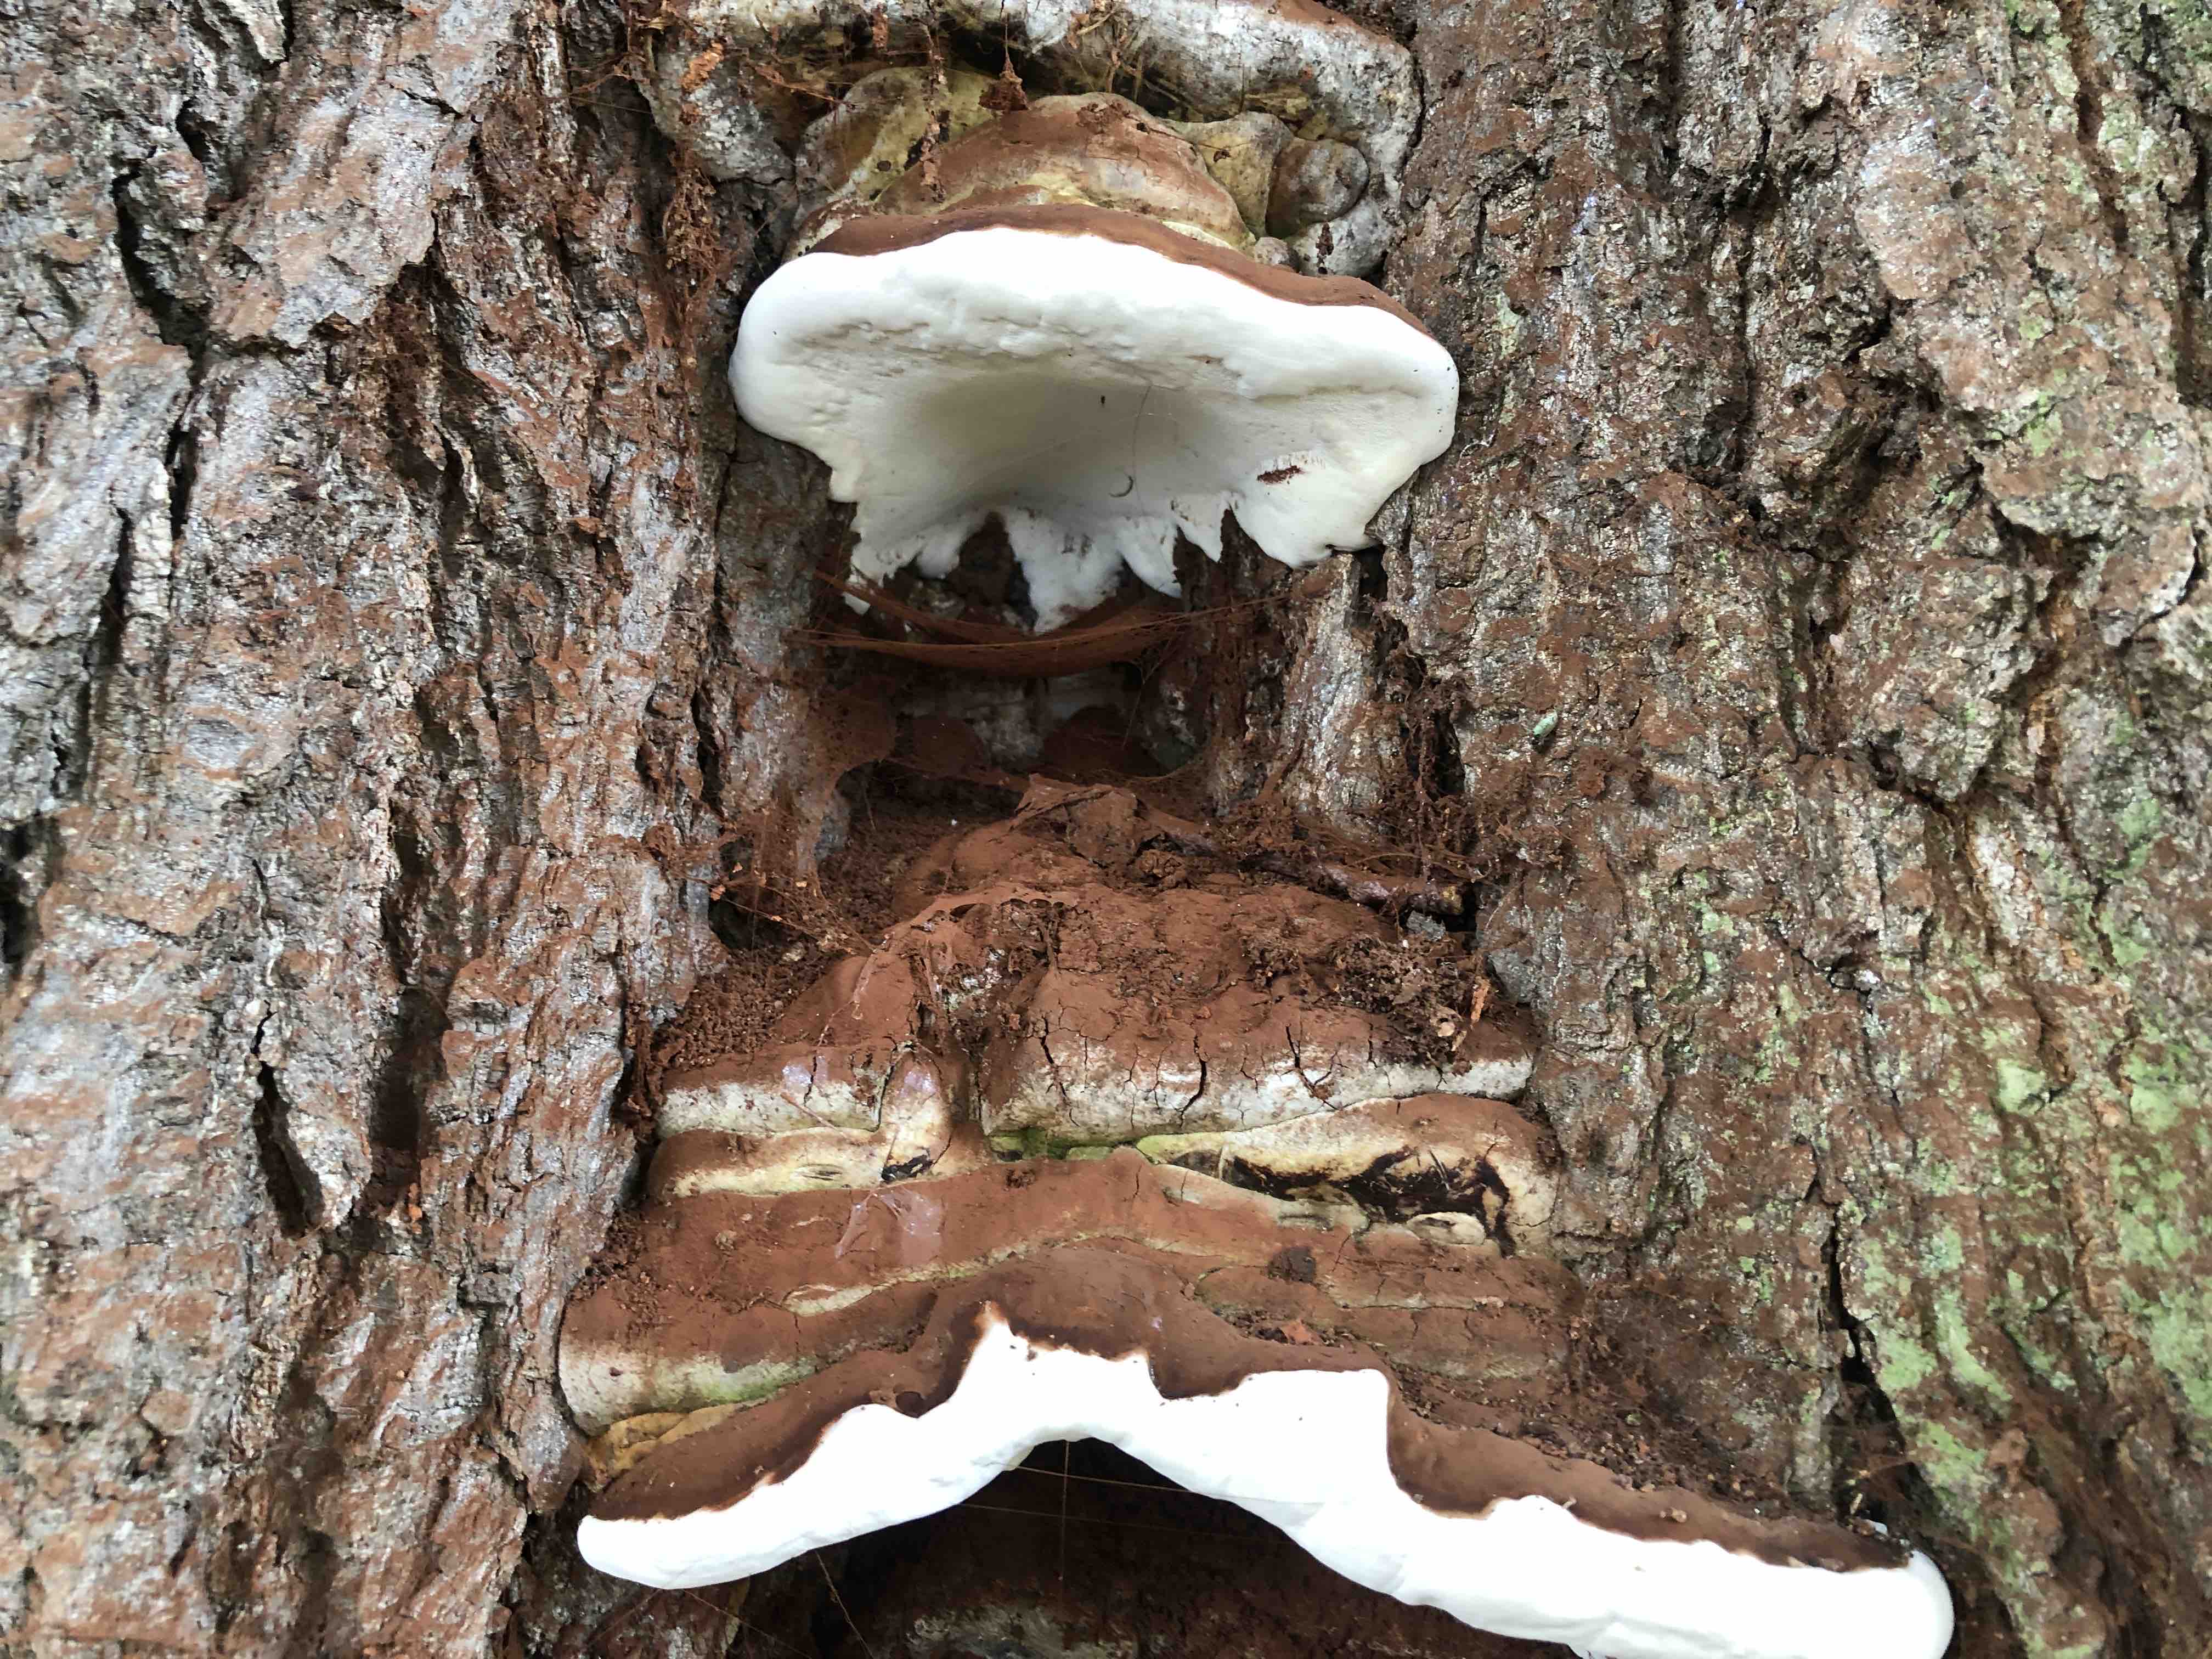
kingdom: Fungi
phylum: Basidiomycota
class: Agaricomycetes
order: Polyporales
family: Polyporaceae
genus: Ganoderma
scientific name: Ganoderma adspersum
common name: grov lakporesvamp
